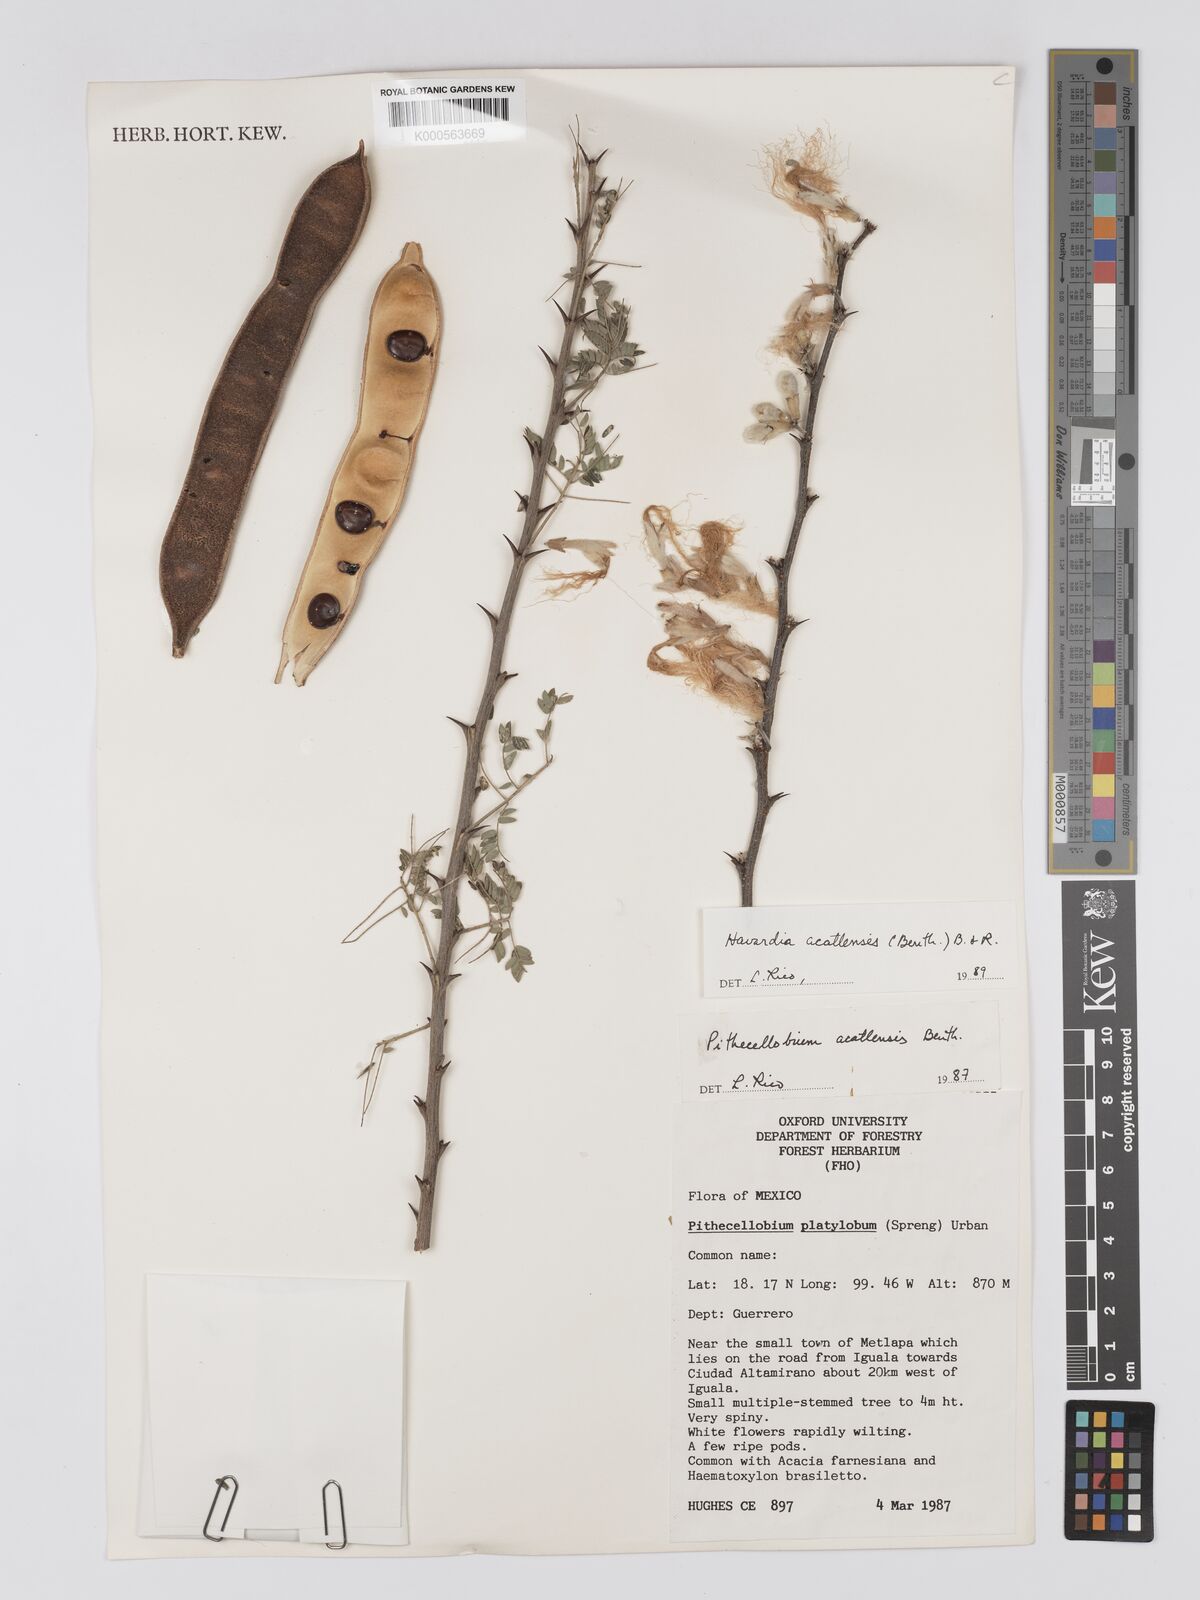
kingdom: Plantae
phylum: Tracheophyta
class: Magnoliopsida
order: Fabales
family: Fabaceae
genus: Havardia
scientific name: Havardia acatlensis
